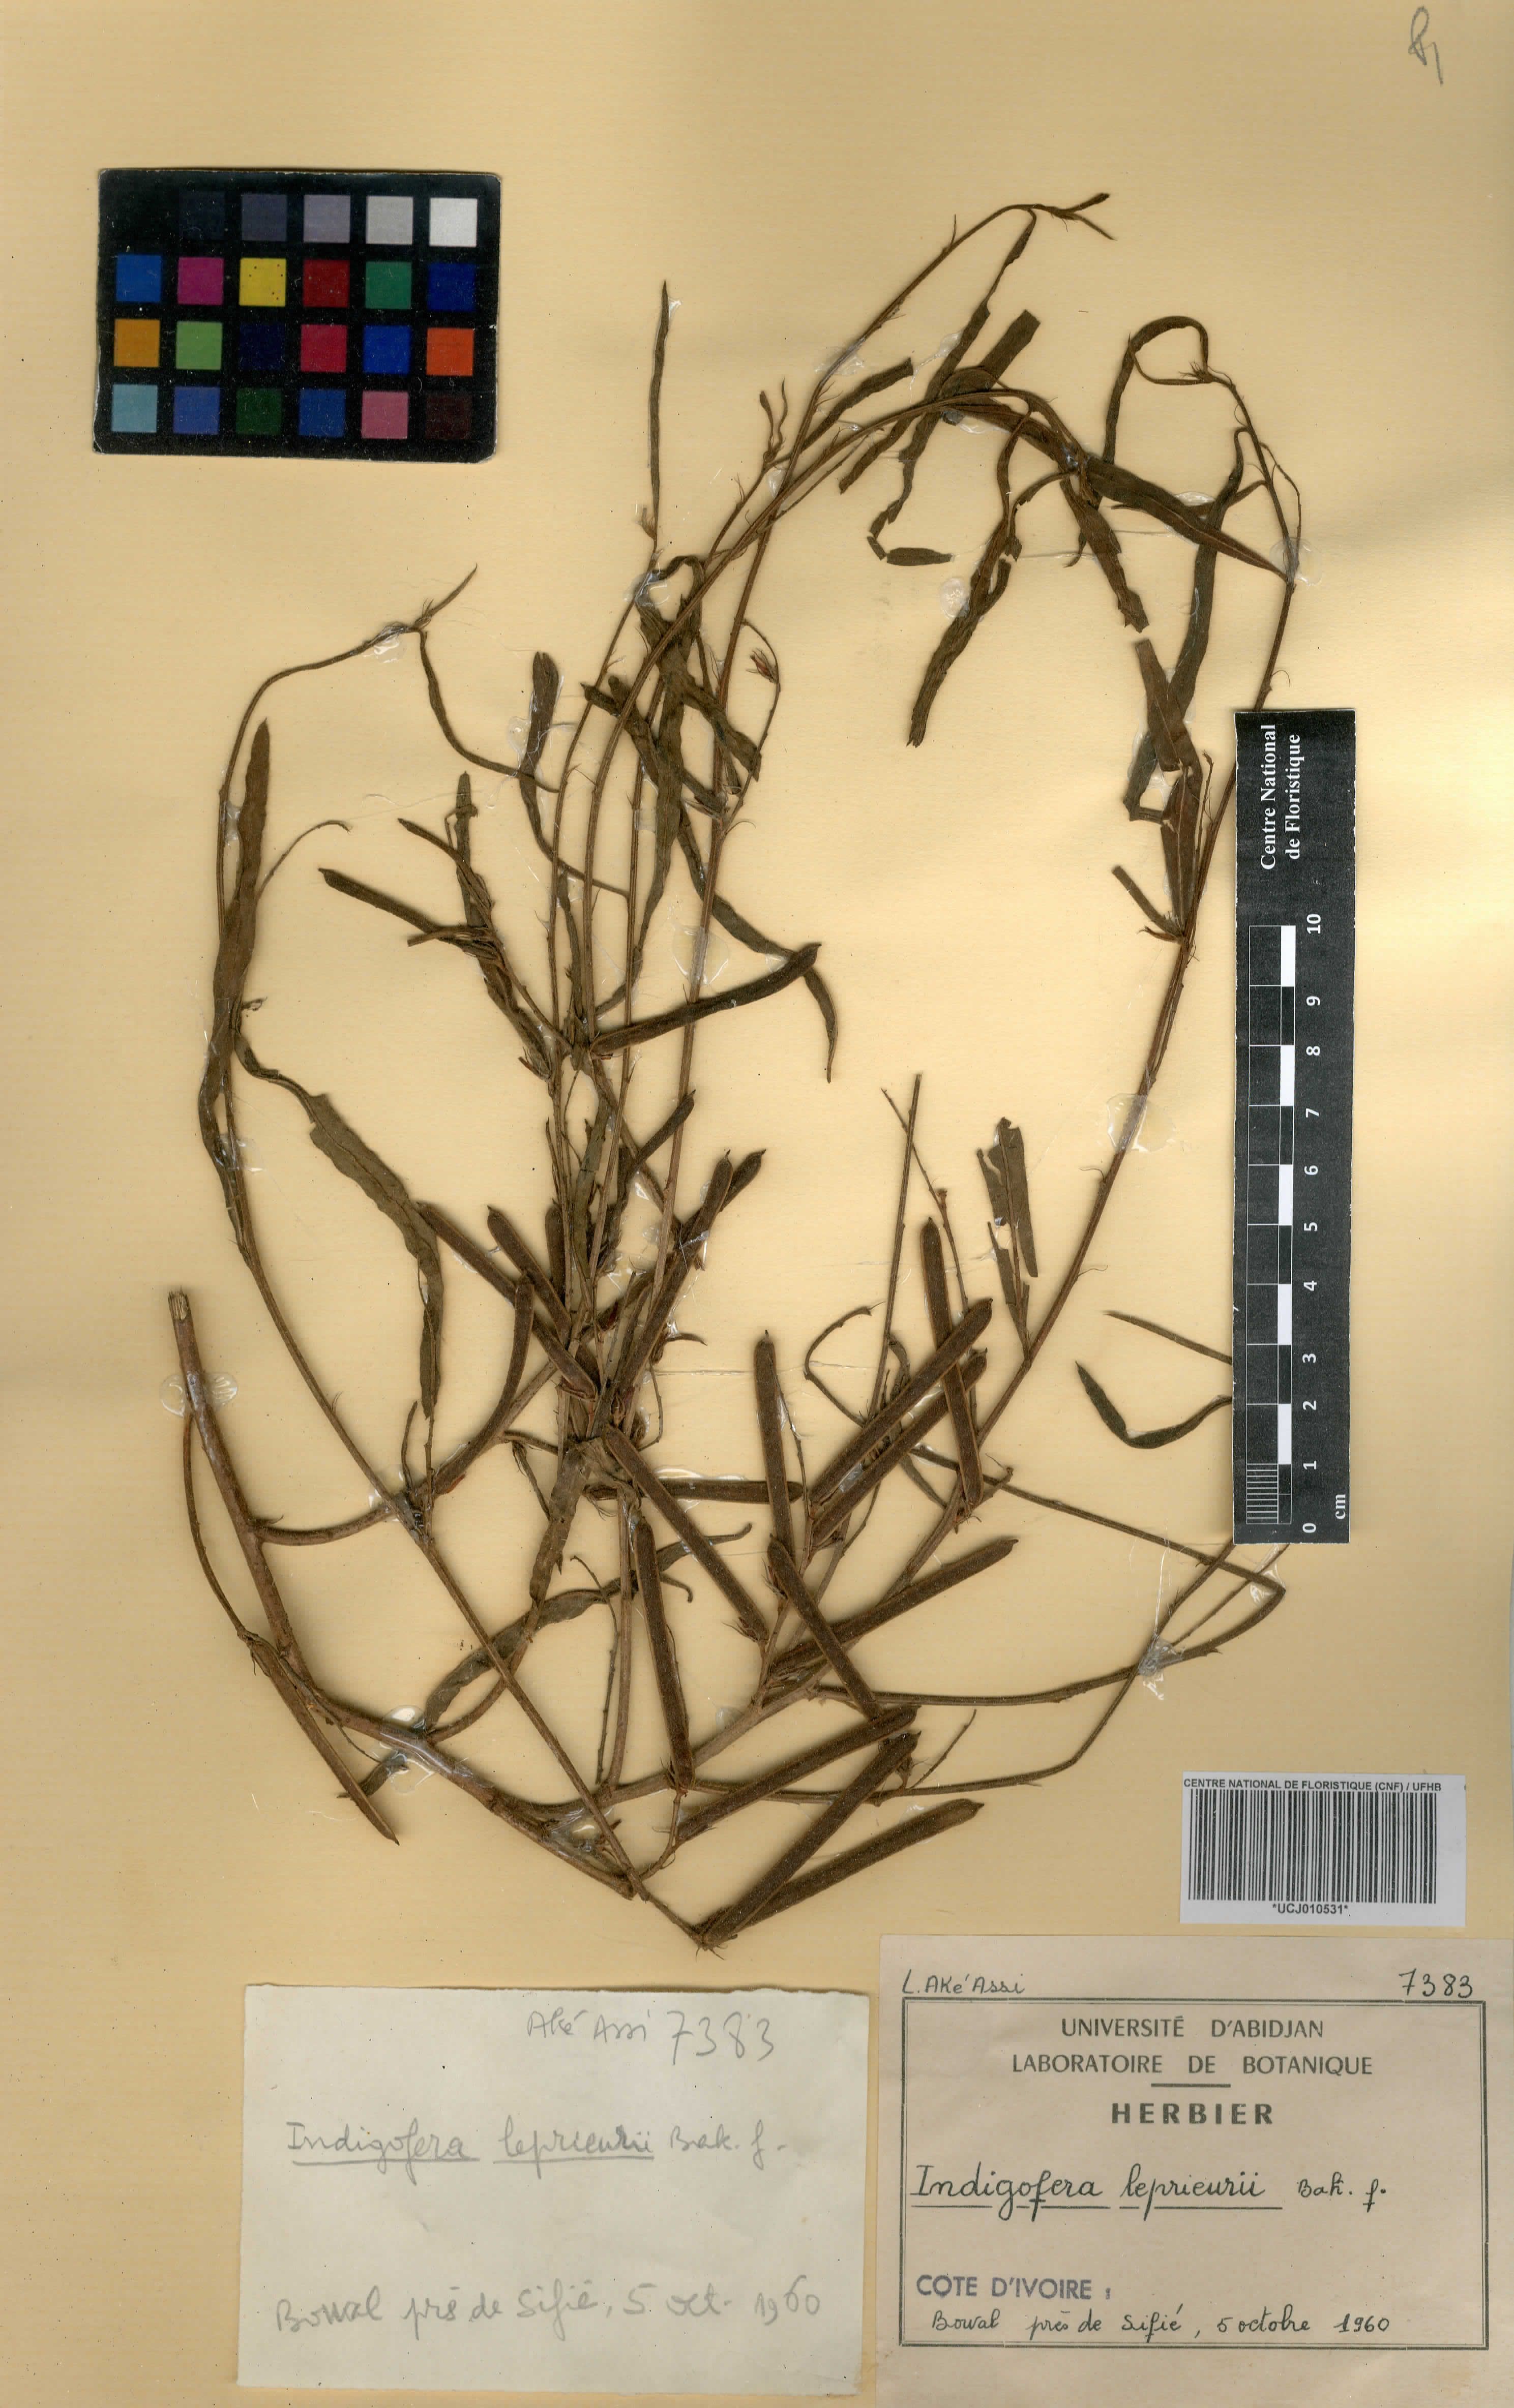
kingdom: Plantae
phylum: Tracheophyta
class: Magnoliopsida
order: Fabales
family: Fabaceae
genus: Indigofera
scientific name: Indigofera leprieurii
